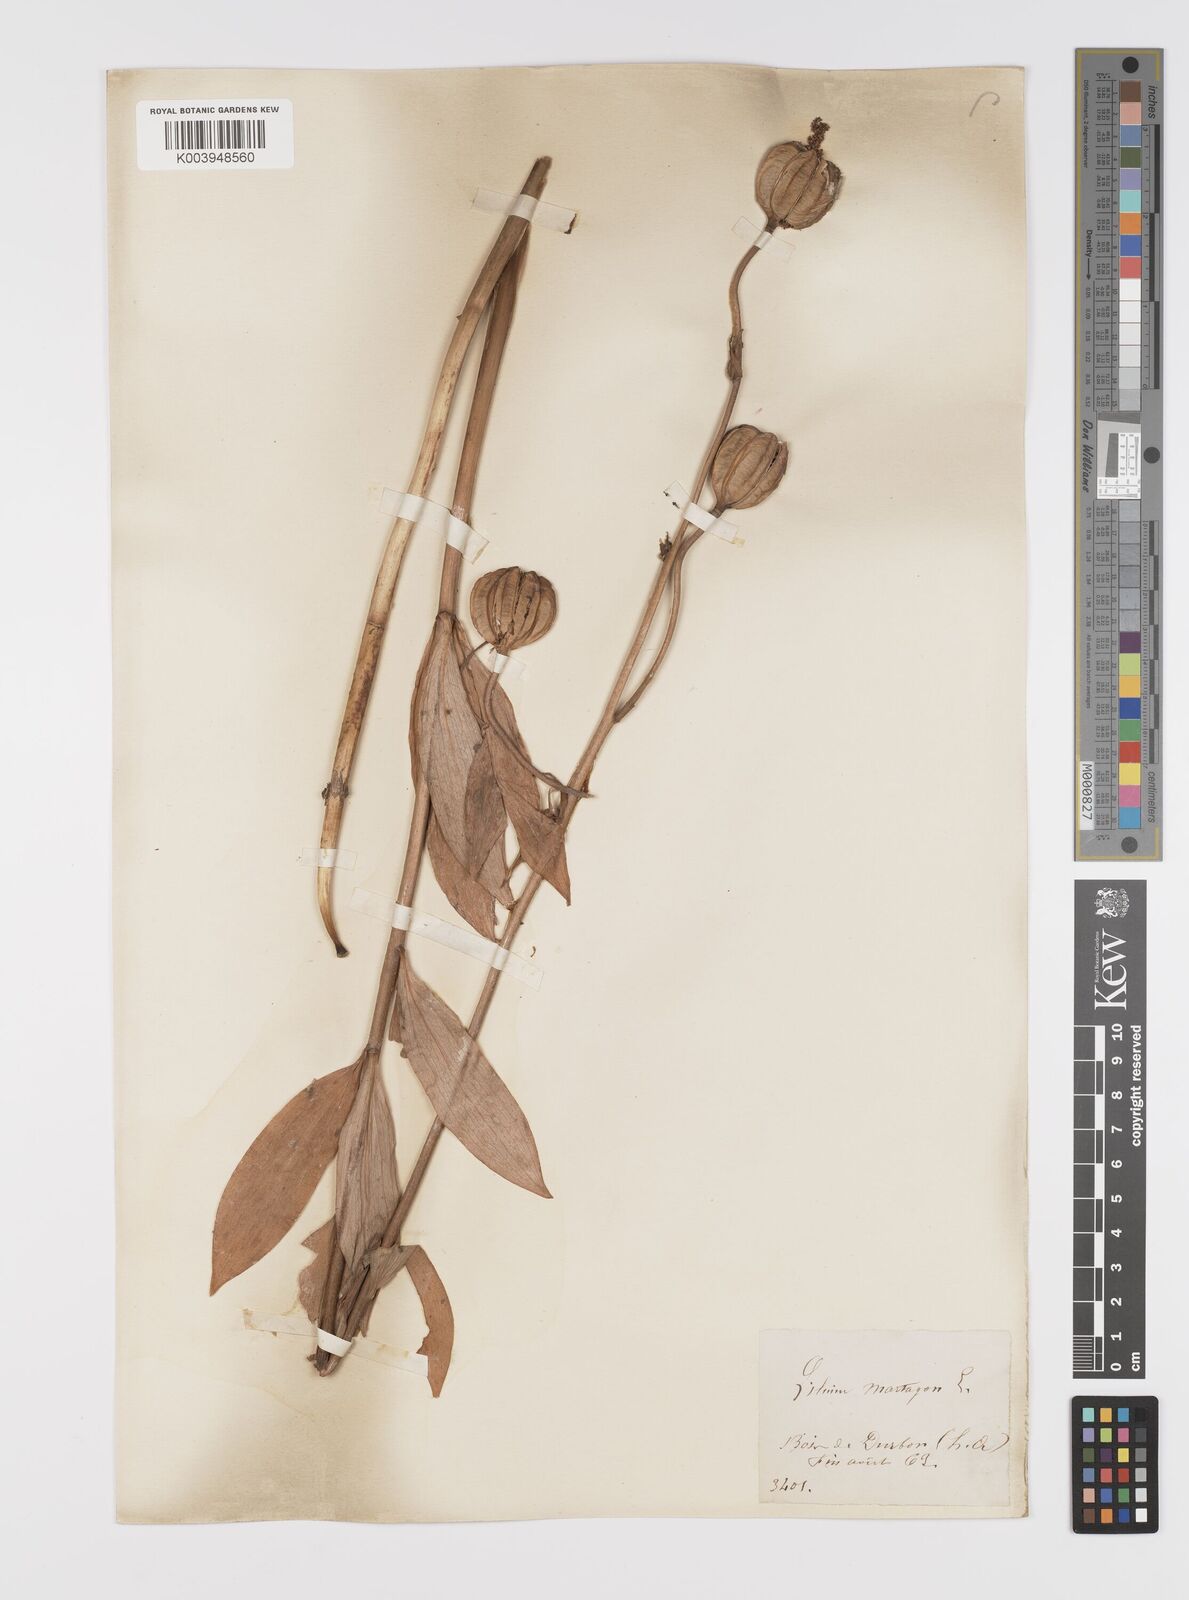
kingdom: Plantae
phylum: Tracheophyta
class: Liliopsida
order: Liliales
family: Liliaceae
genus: Lilium
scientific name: Lilium martagon
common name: Martagon lily
